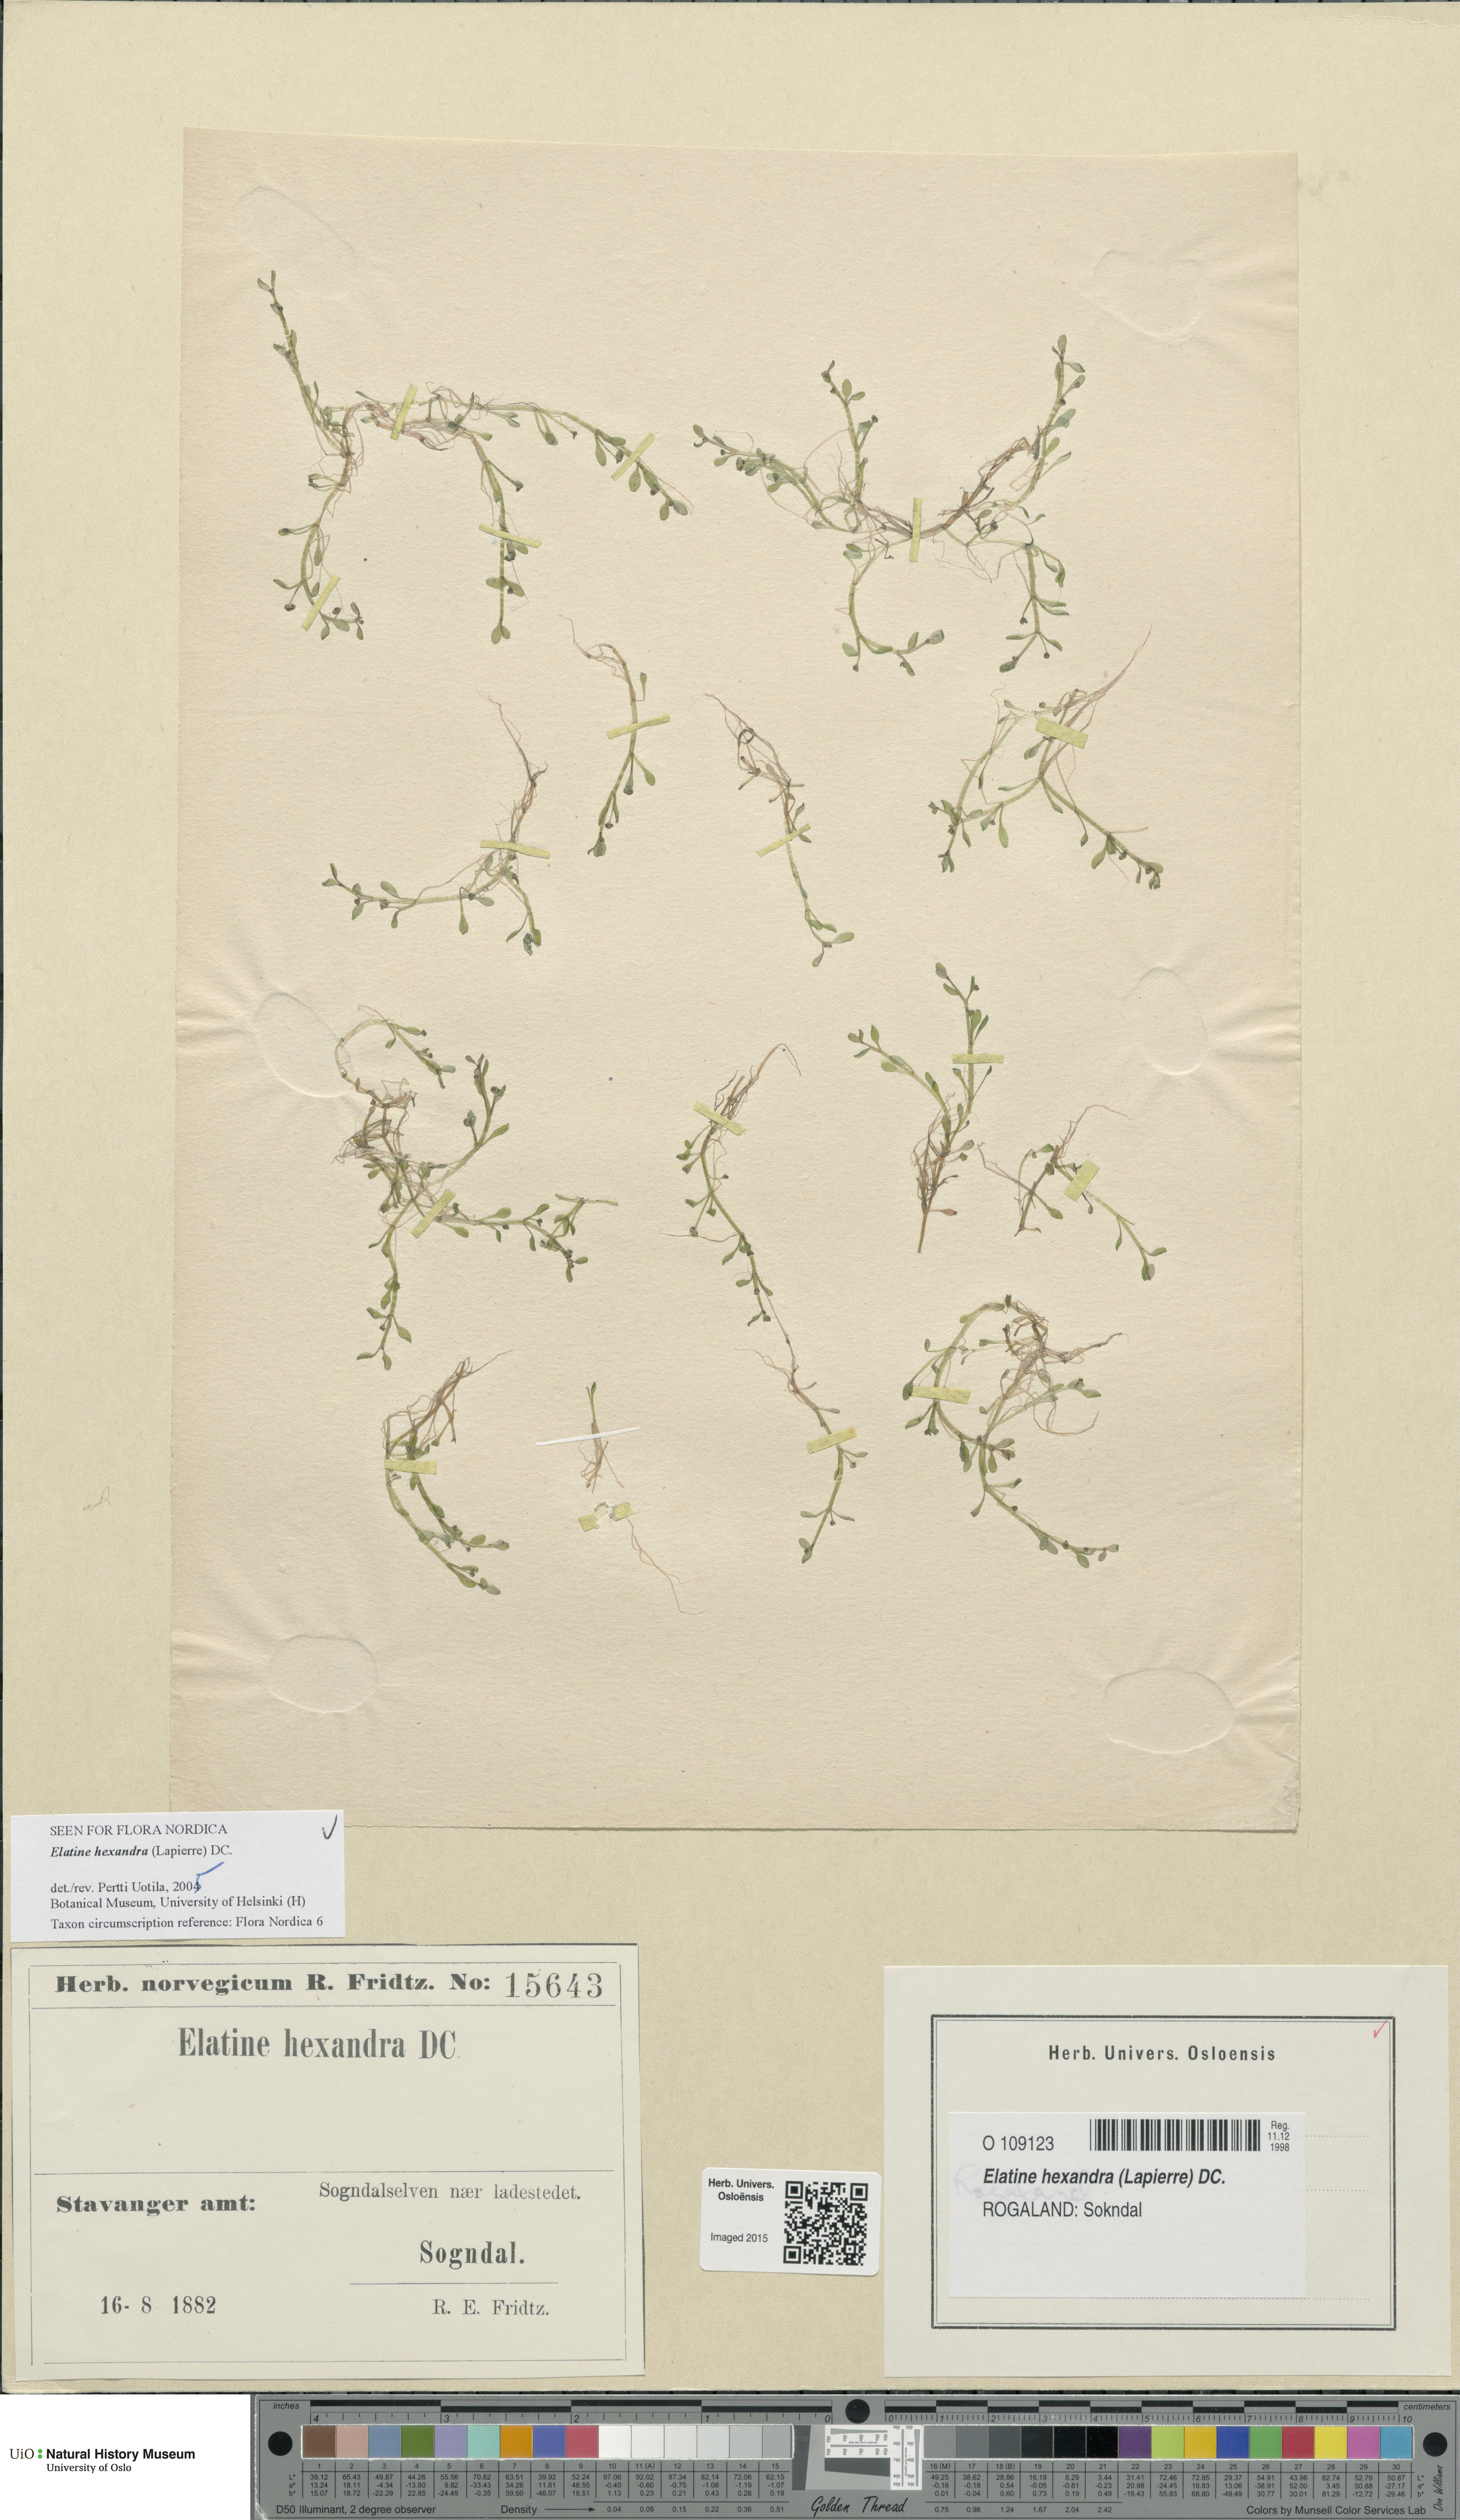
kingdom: Plantae
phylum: Tracheophyta
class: Magnoliopsida
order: Malpighiales
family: Elatinaceae
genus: Elatine
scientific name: Elatine hexandra
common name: Six-stamened waterwort
